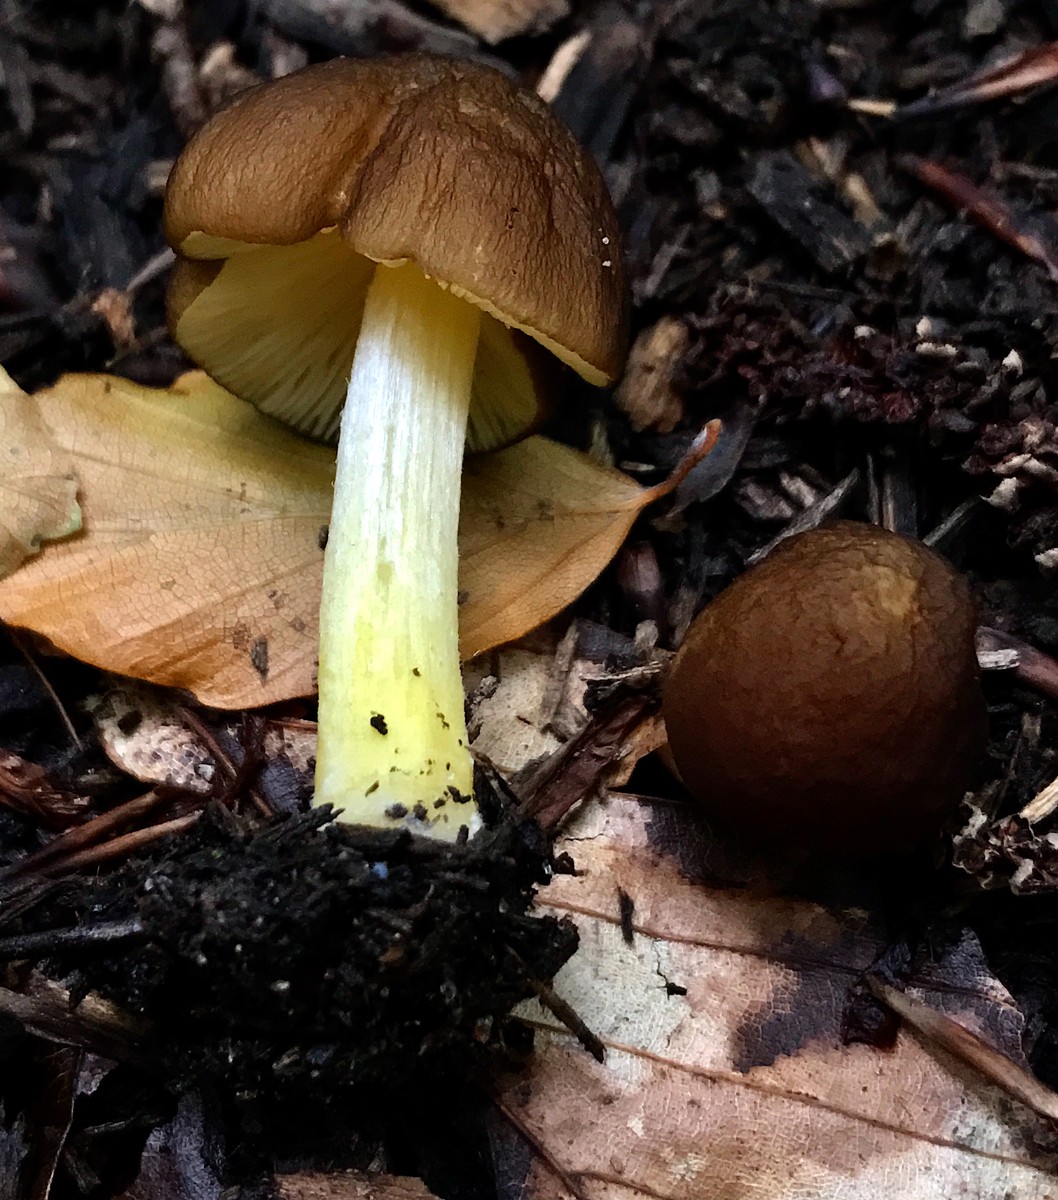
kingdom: Fungi
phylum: Basidiomycota
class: Agaricomycetes
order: Agaricales
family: Pluteaceae
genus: Pluteus
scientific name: Pluteus romellii
